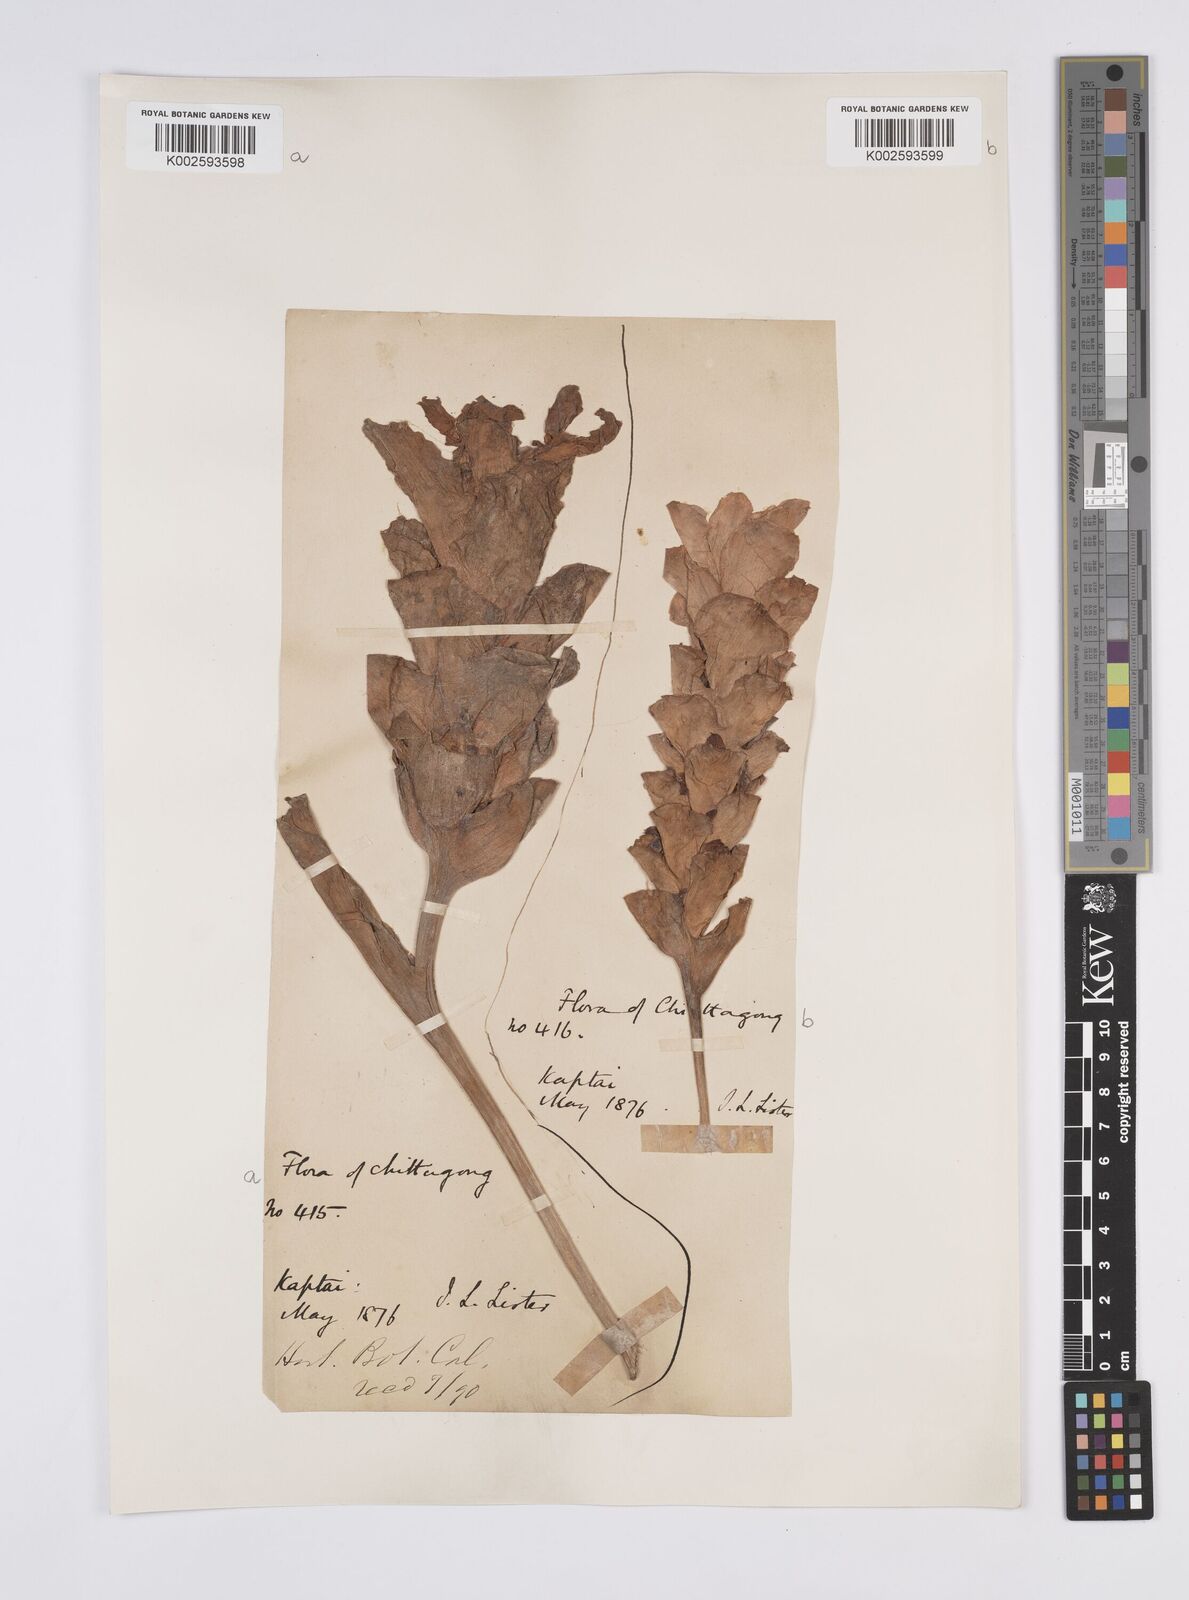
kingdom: Plantae
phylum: Tracheophyta
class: Liliopsida
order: Zingiberales
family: Zingiberaceae
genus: Curcuma
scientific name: Curcuma aromatica
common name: Wild turmeric
